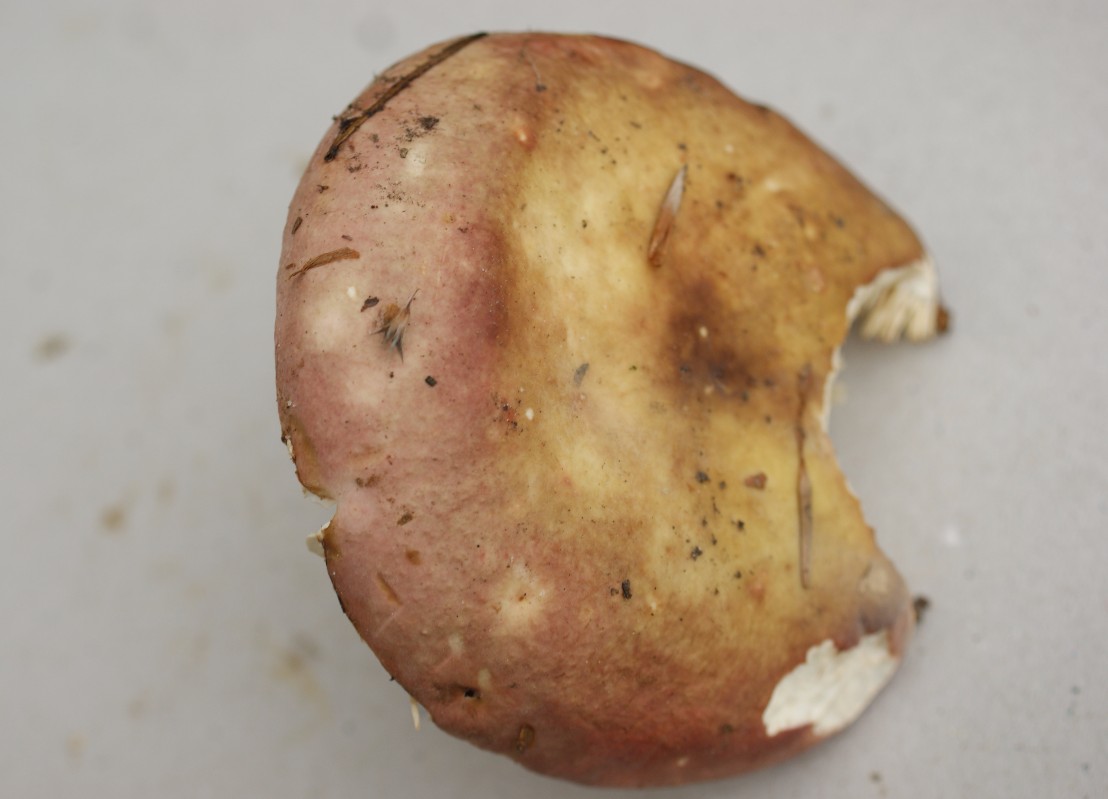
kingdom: Fungi
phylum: Basidiomycota
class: Agaricomycetes
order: Russulales
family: Russulaceae
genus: Russula
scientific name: Russula faginea
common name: bøge-skørhat
